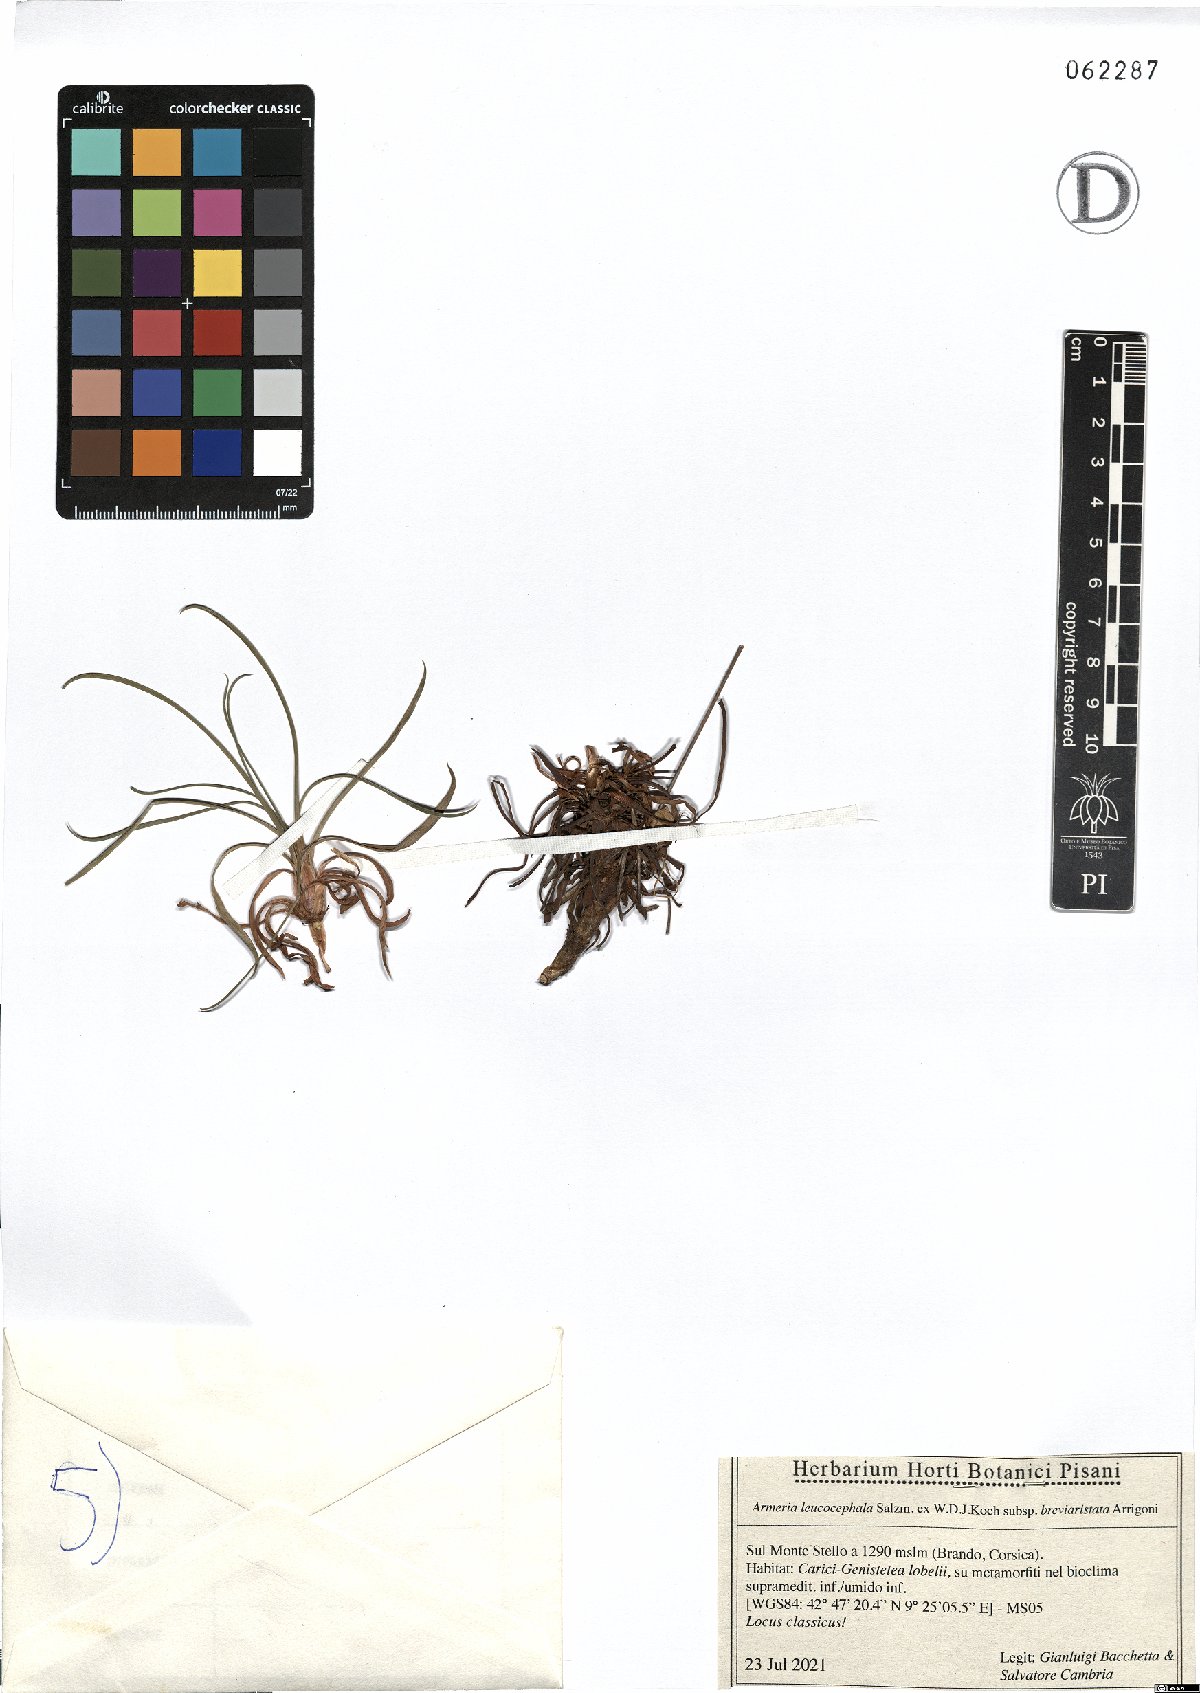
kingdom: Plantae
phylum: Tracheophyta
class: Magnoliopsida
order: Caryophyllales
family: Plumbaginaceae
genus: Armeria
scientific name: Armeria leucocephala
